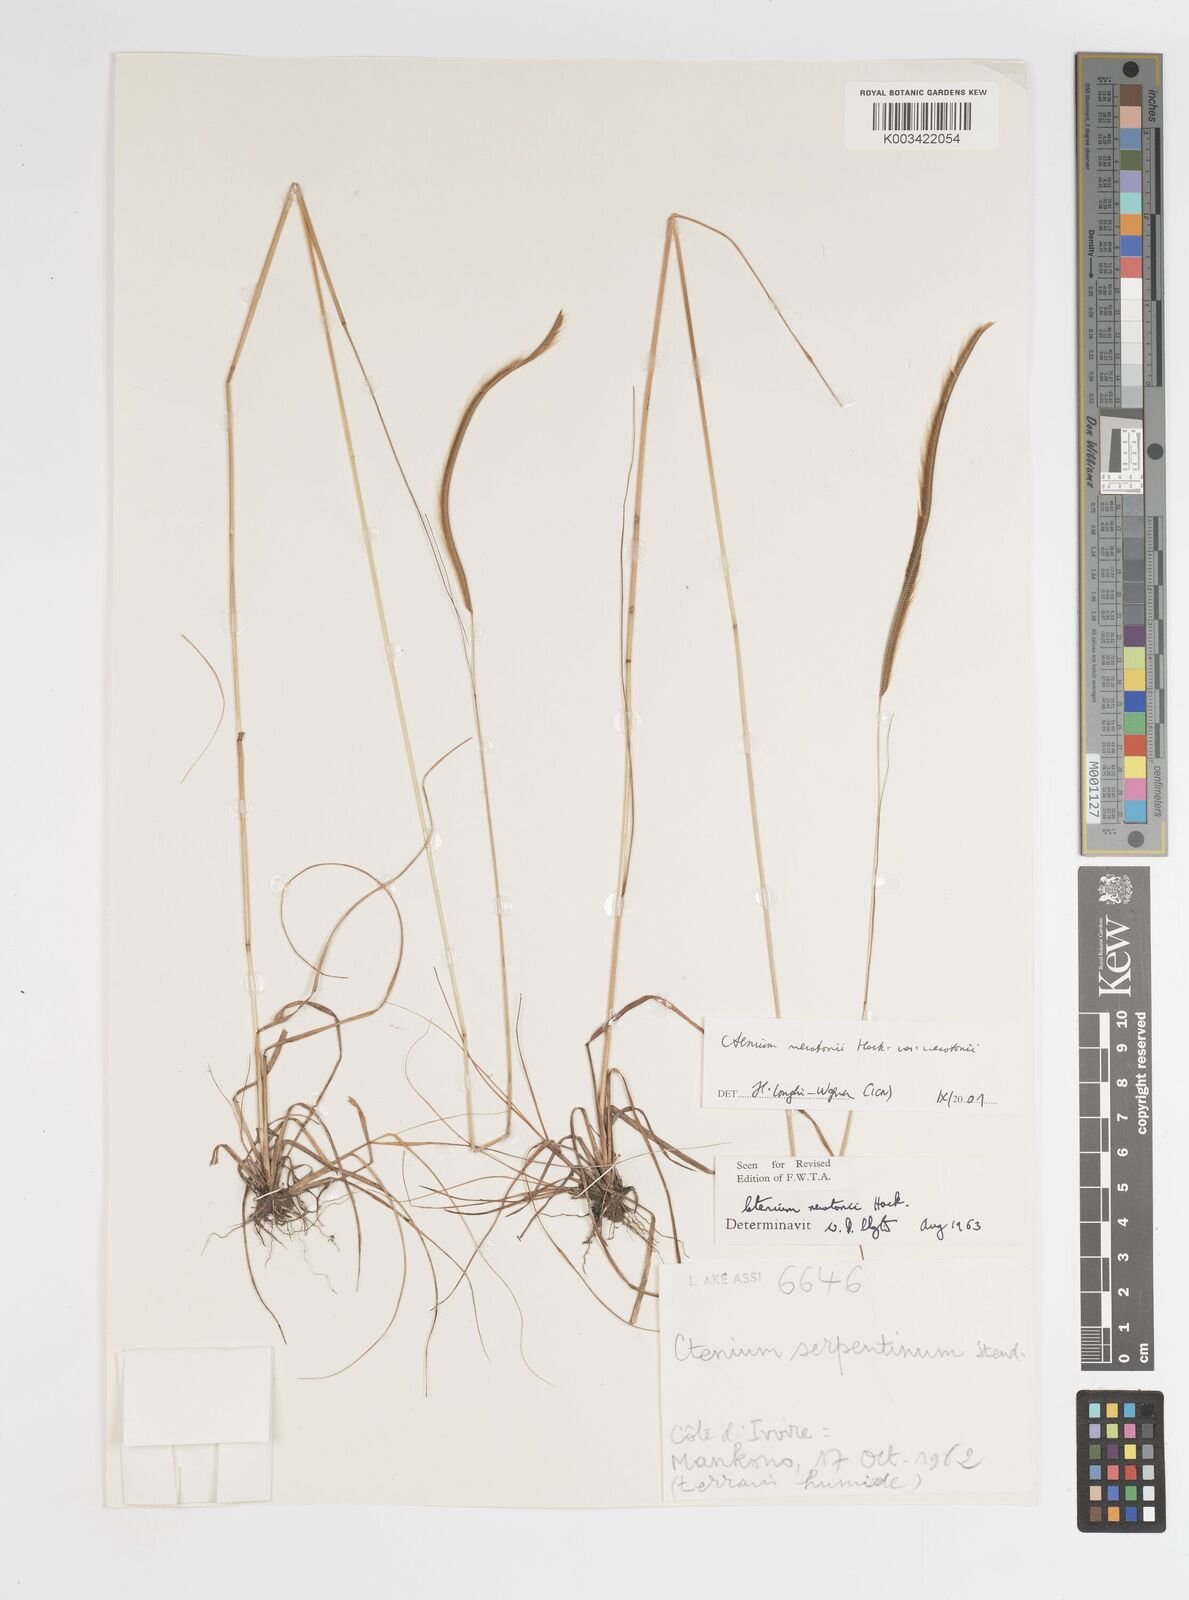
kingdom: Plantae
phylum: Tracheophyta
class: Liliopsida
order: Poales
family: Poaceae
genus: Ctenium
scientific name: Ctenium newtonii
